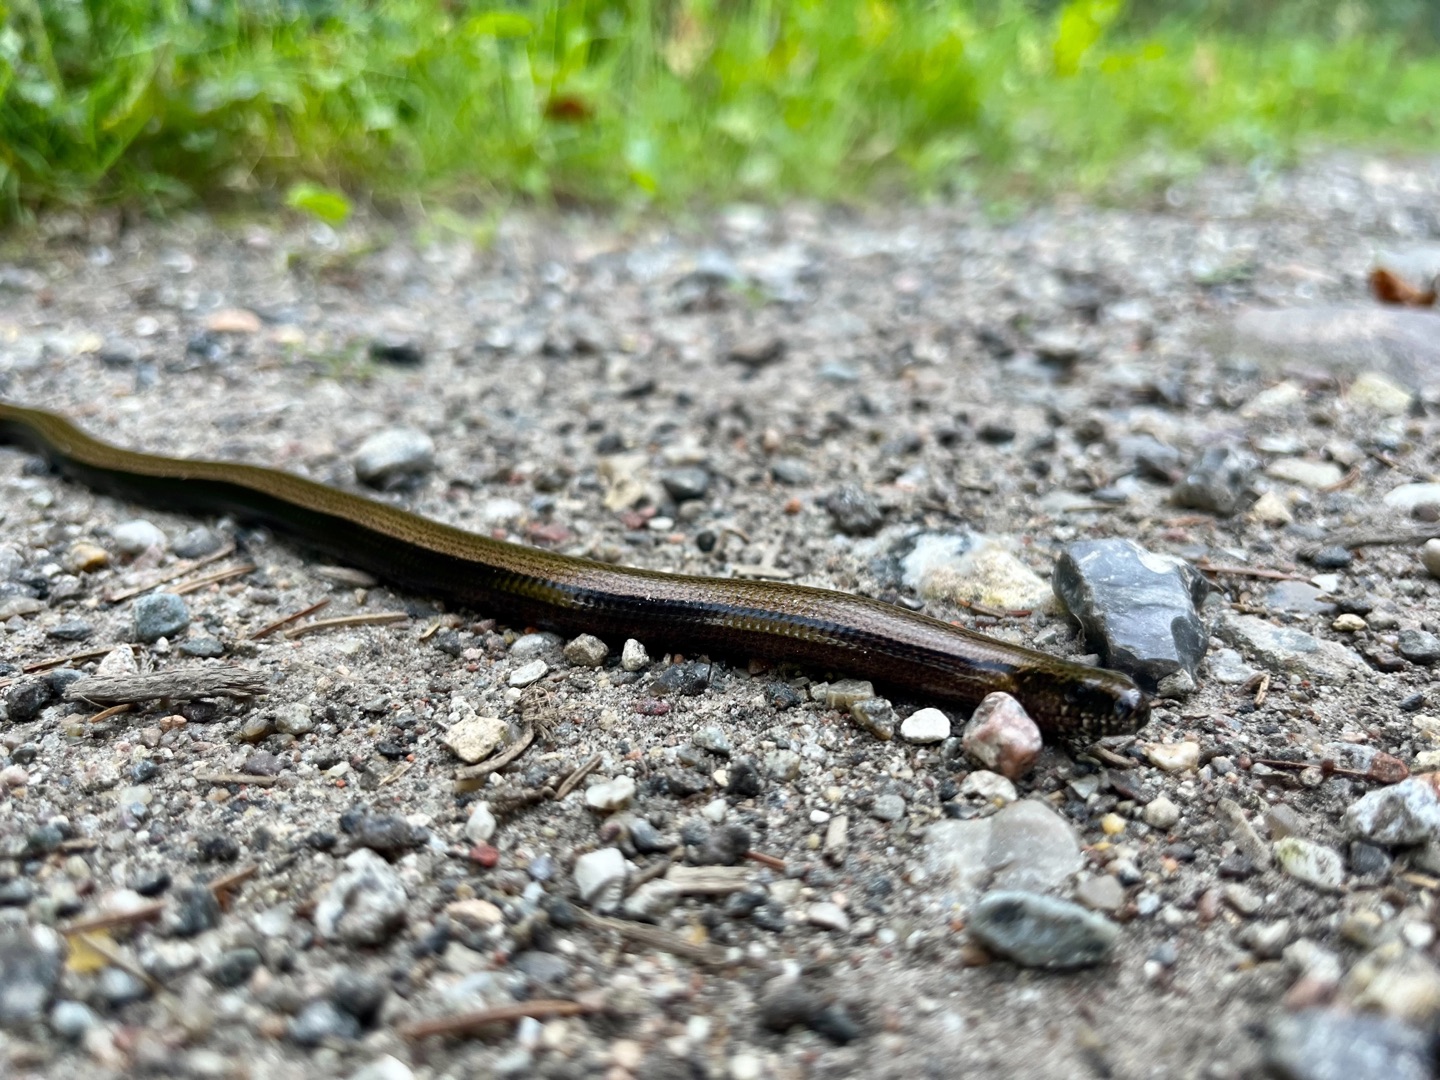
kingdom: Animalia
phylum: Chordata
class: Squamata
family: Anguidae
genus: Anguis
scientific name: Anguis fragilis
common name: Stålorm
